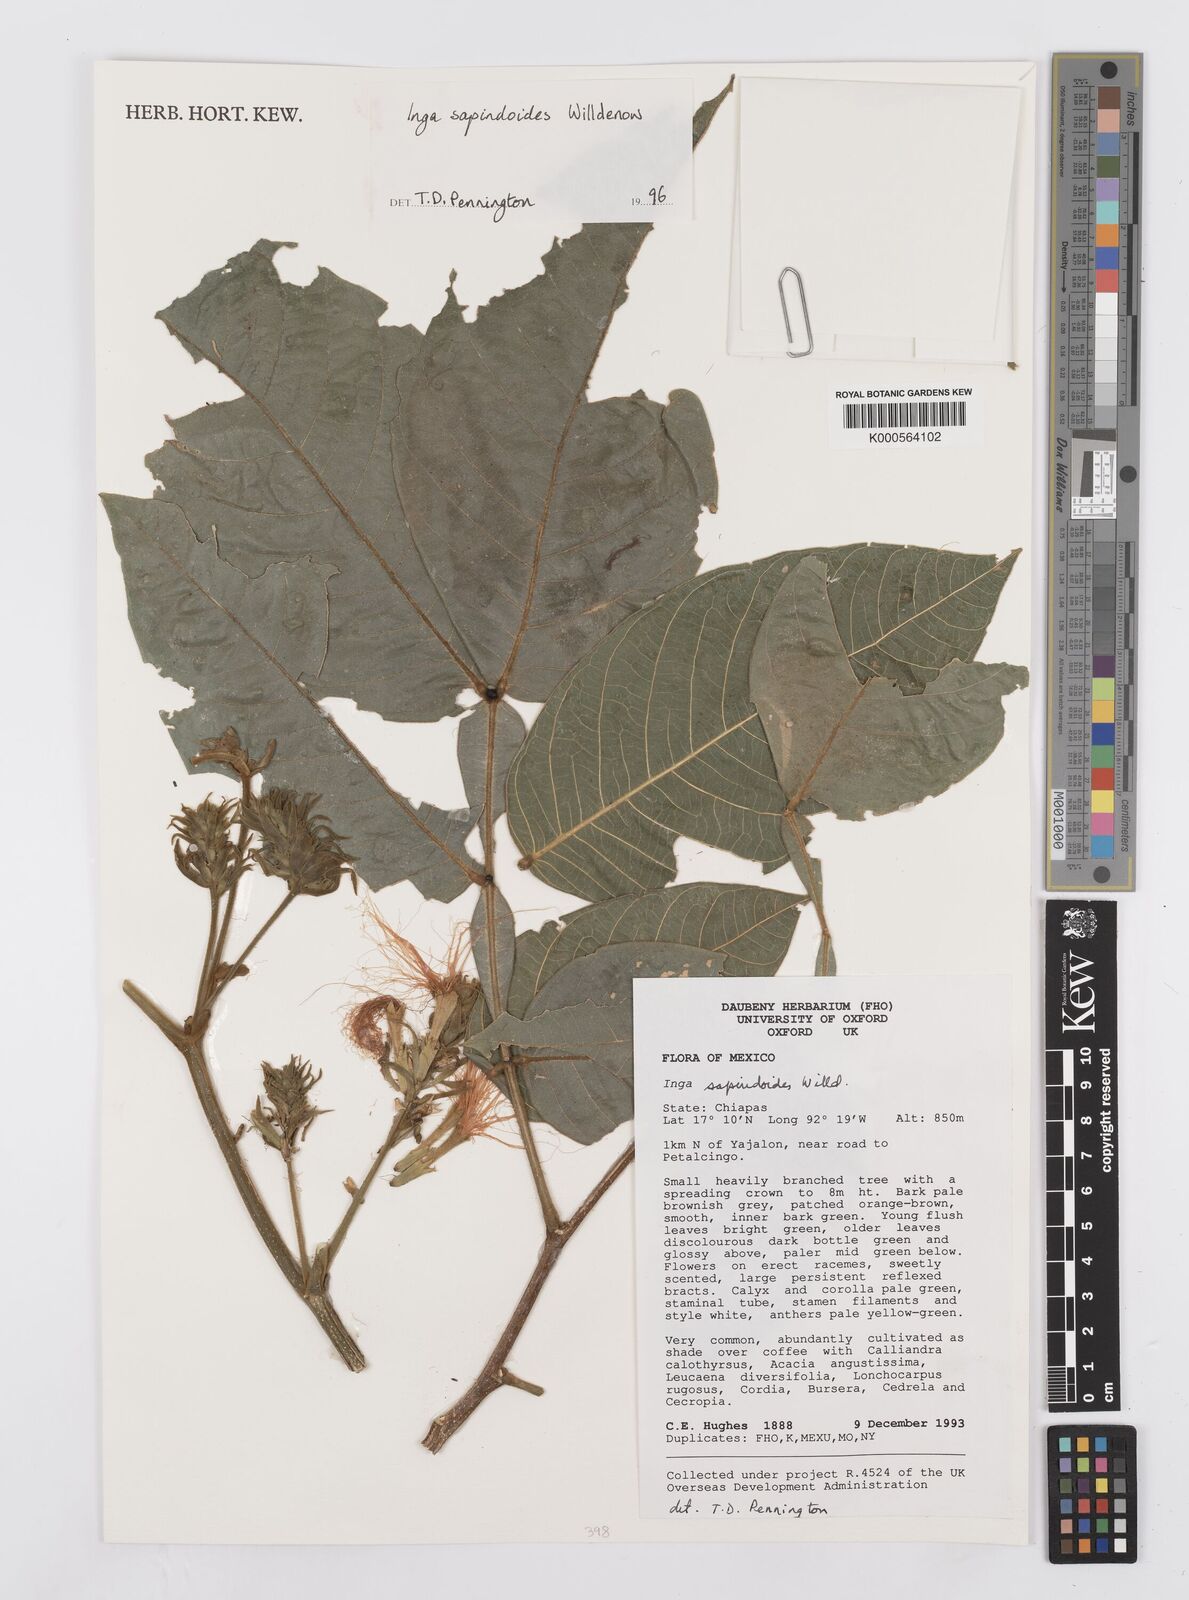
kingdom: Plantae
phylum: Tracheophyta
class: Magnoliopsida
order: Fabales
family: Fabaceae
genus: Inga
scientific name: Inga sapindoides
